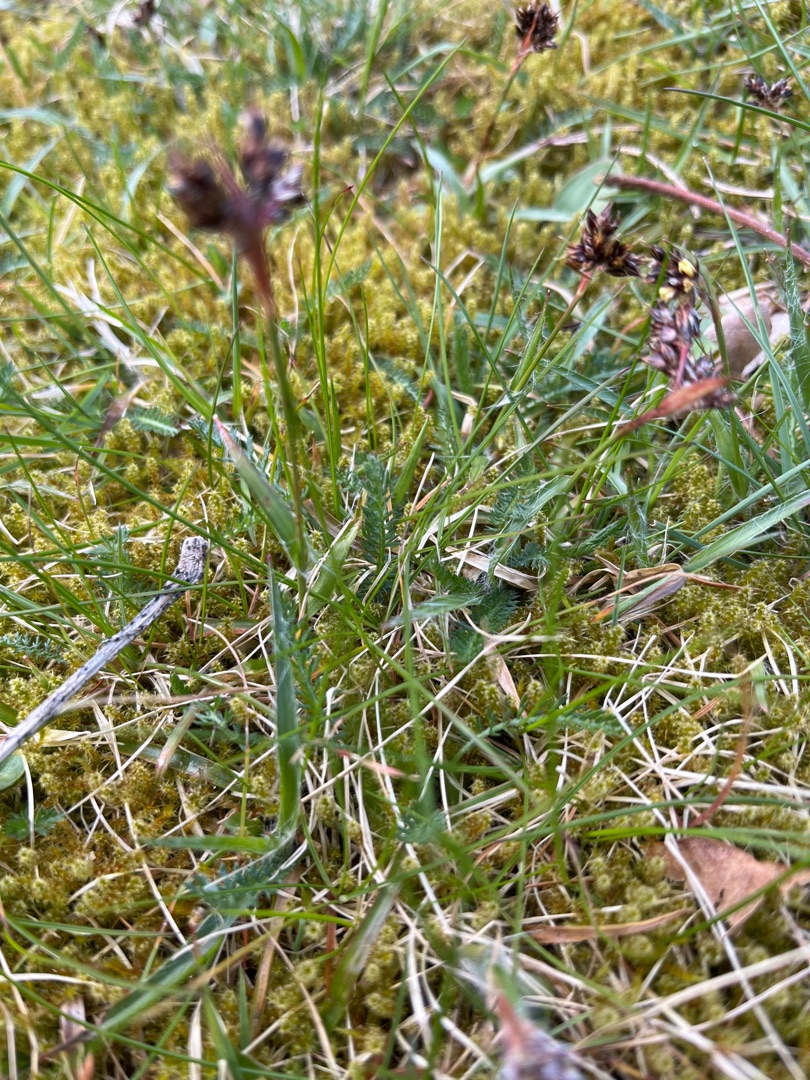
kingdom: Plantae
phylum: Tracheophyta
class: Liliopsida
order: Poales
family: Juncaceae
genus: Luzula
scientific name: Luzula campestris
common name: Mark-frytle
